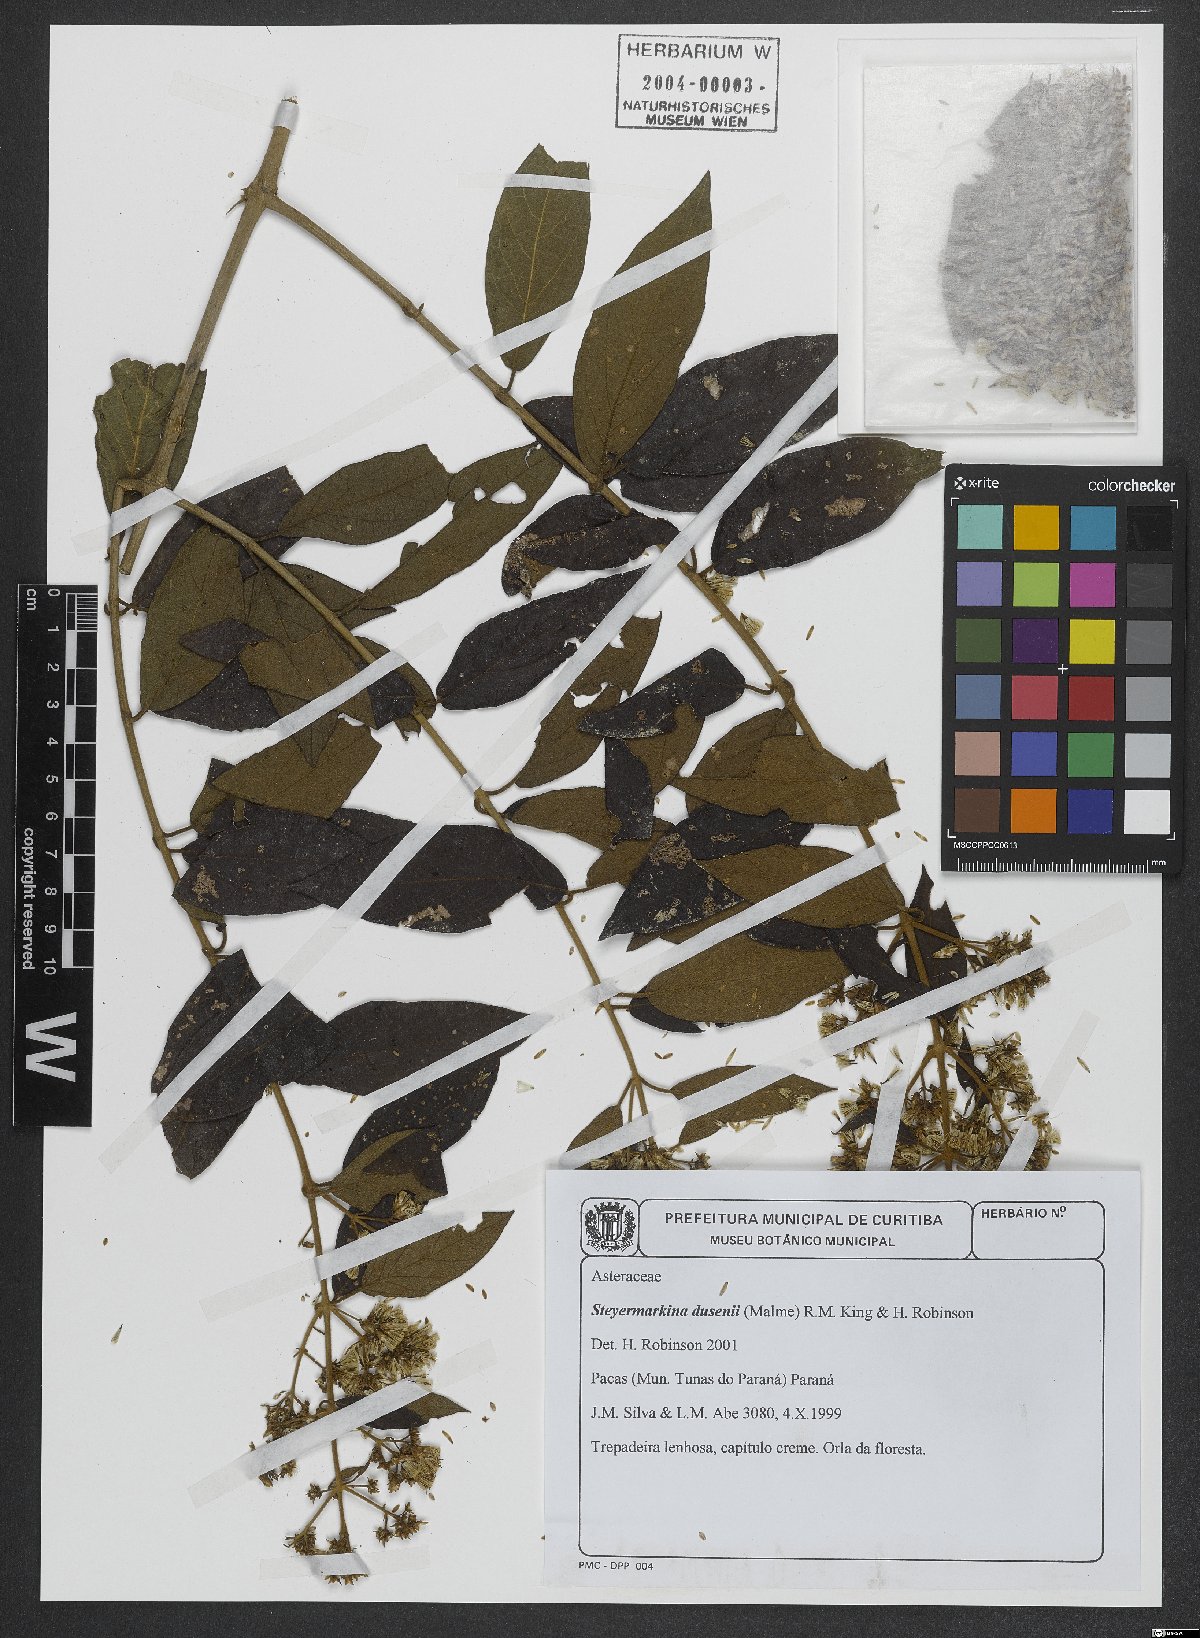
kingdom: Plantae
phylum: Tracheophyta
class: Magnoliopsida
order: Asterales
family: Asteraceae
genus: Steyermarkina
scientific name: Steyermarkina dusenii
